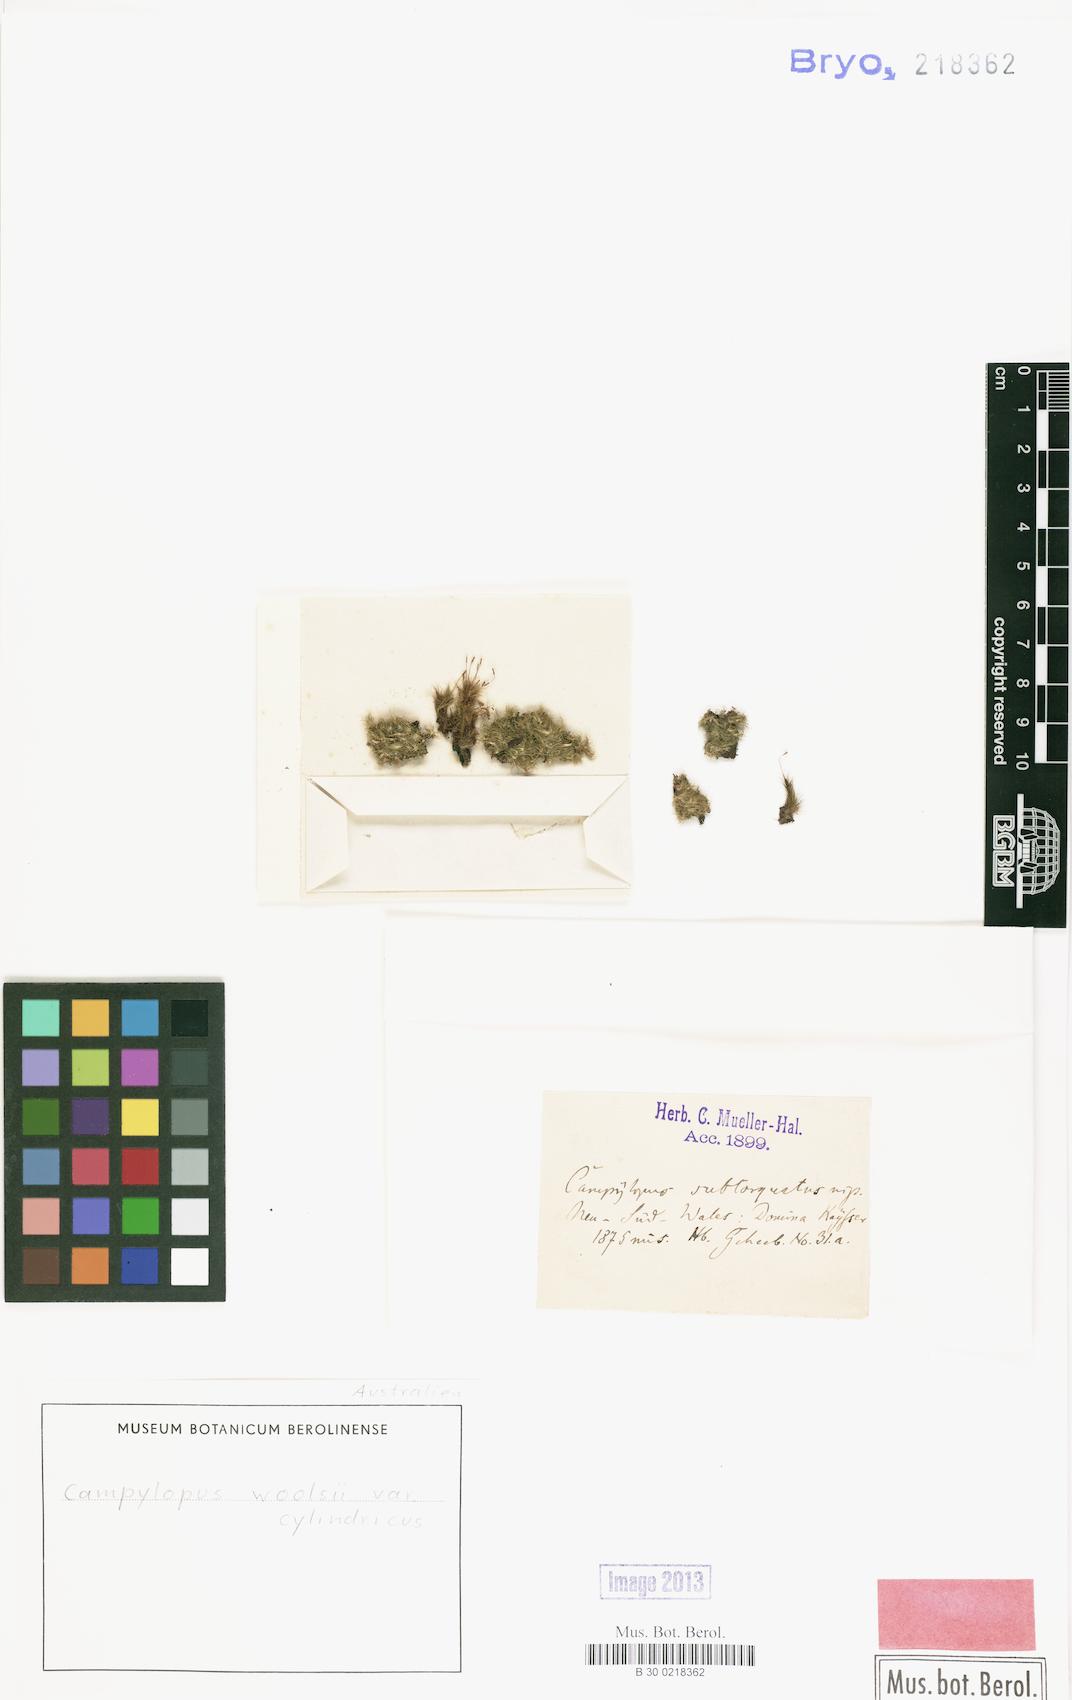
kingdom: Plantae
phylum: Bryophyta
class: Bryopsida
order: Dicranales
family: Leucobryaceae
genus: Campylopus
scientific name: Campylopus pyriformis
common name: Dwarf swan-neck moss
